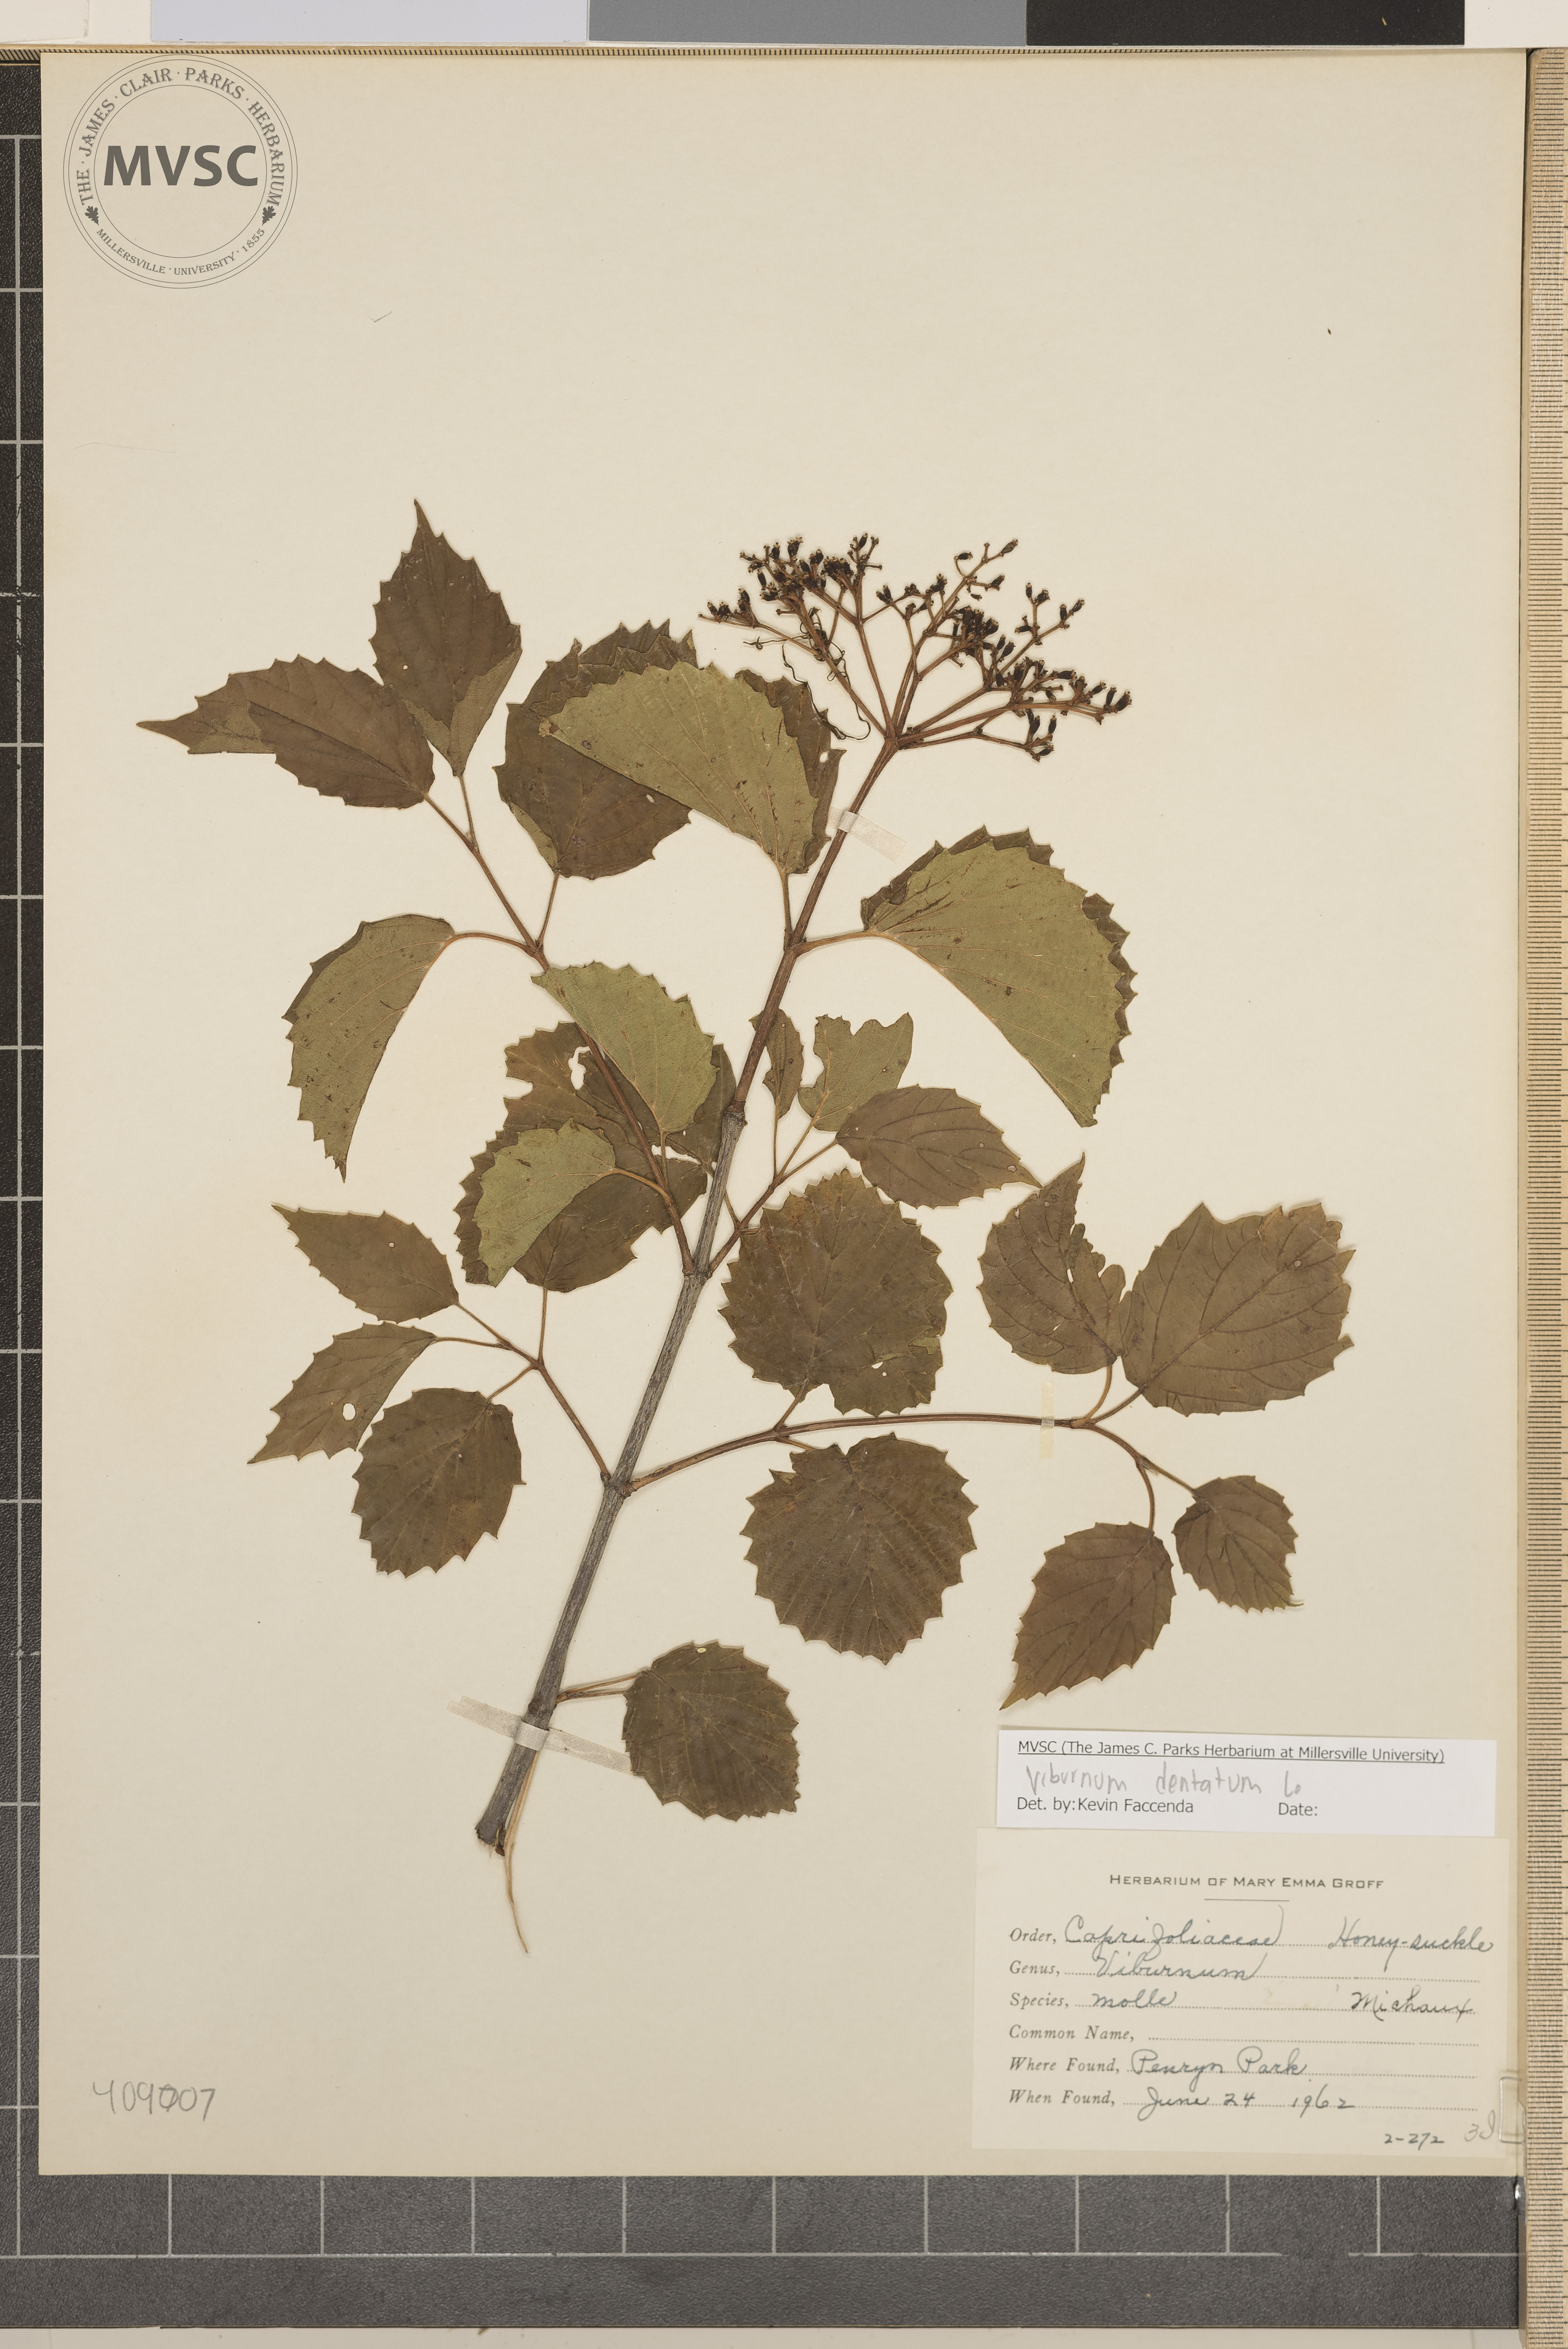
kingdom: Plantae
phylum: Tracheophyta
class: Magnoliopsida
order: Dipsacales
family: Viburnaceae
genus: Viburnum
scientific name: Viburnum dentatum
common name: Arrow-wood
